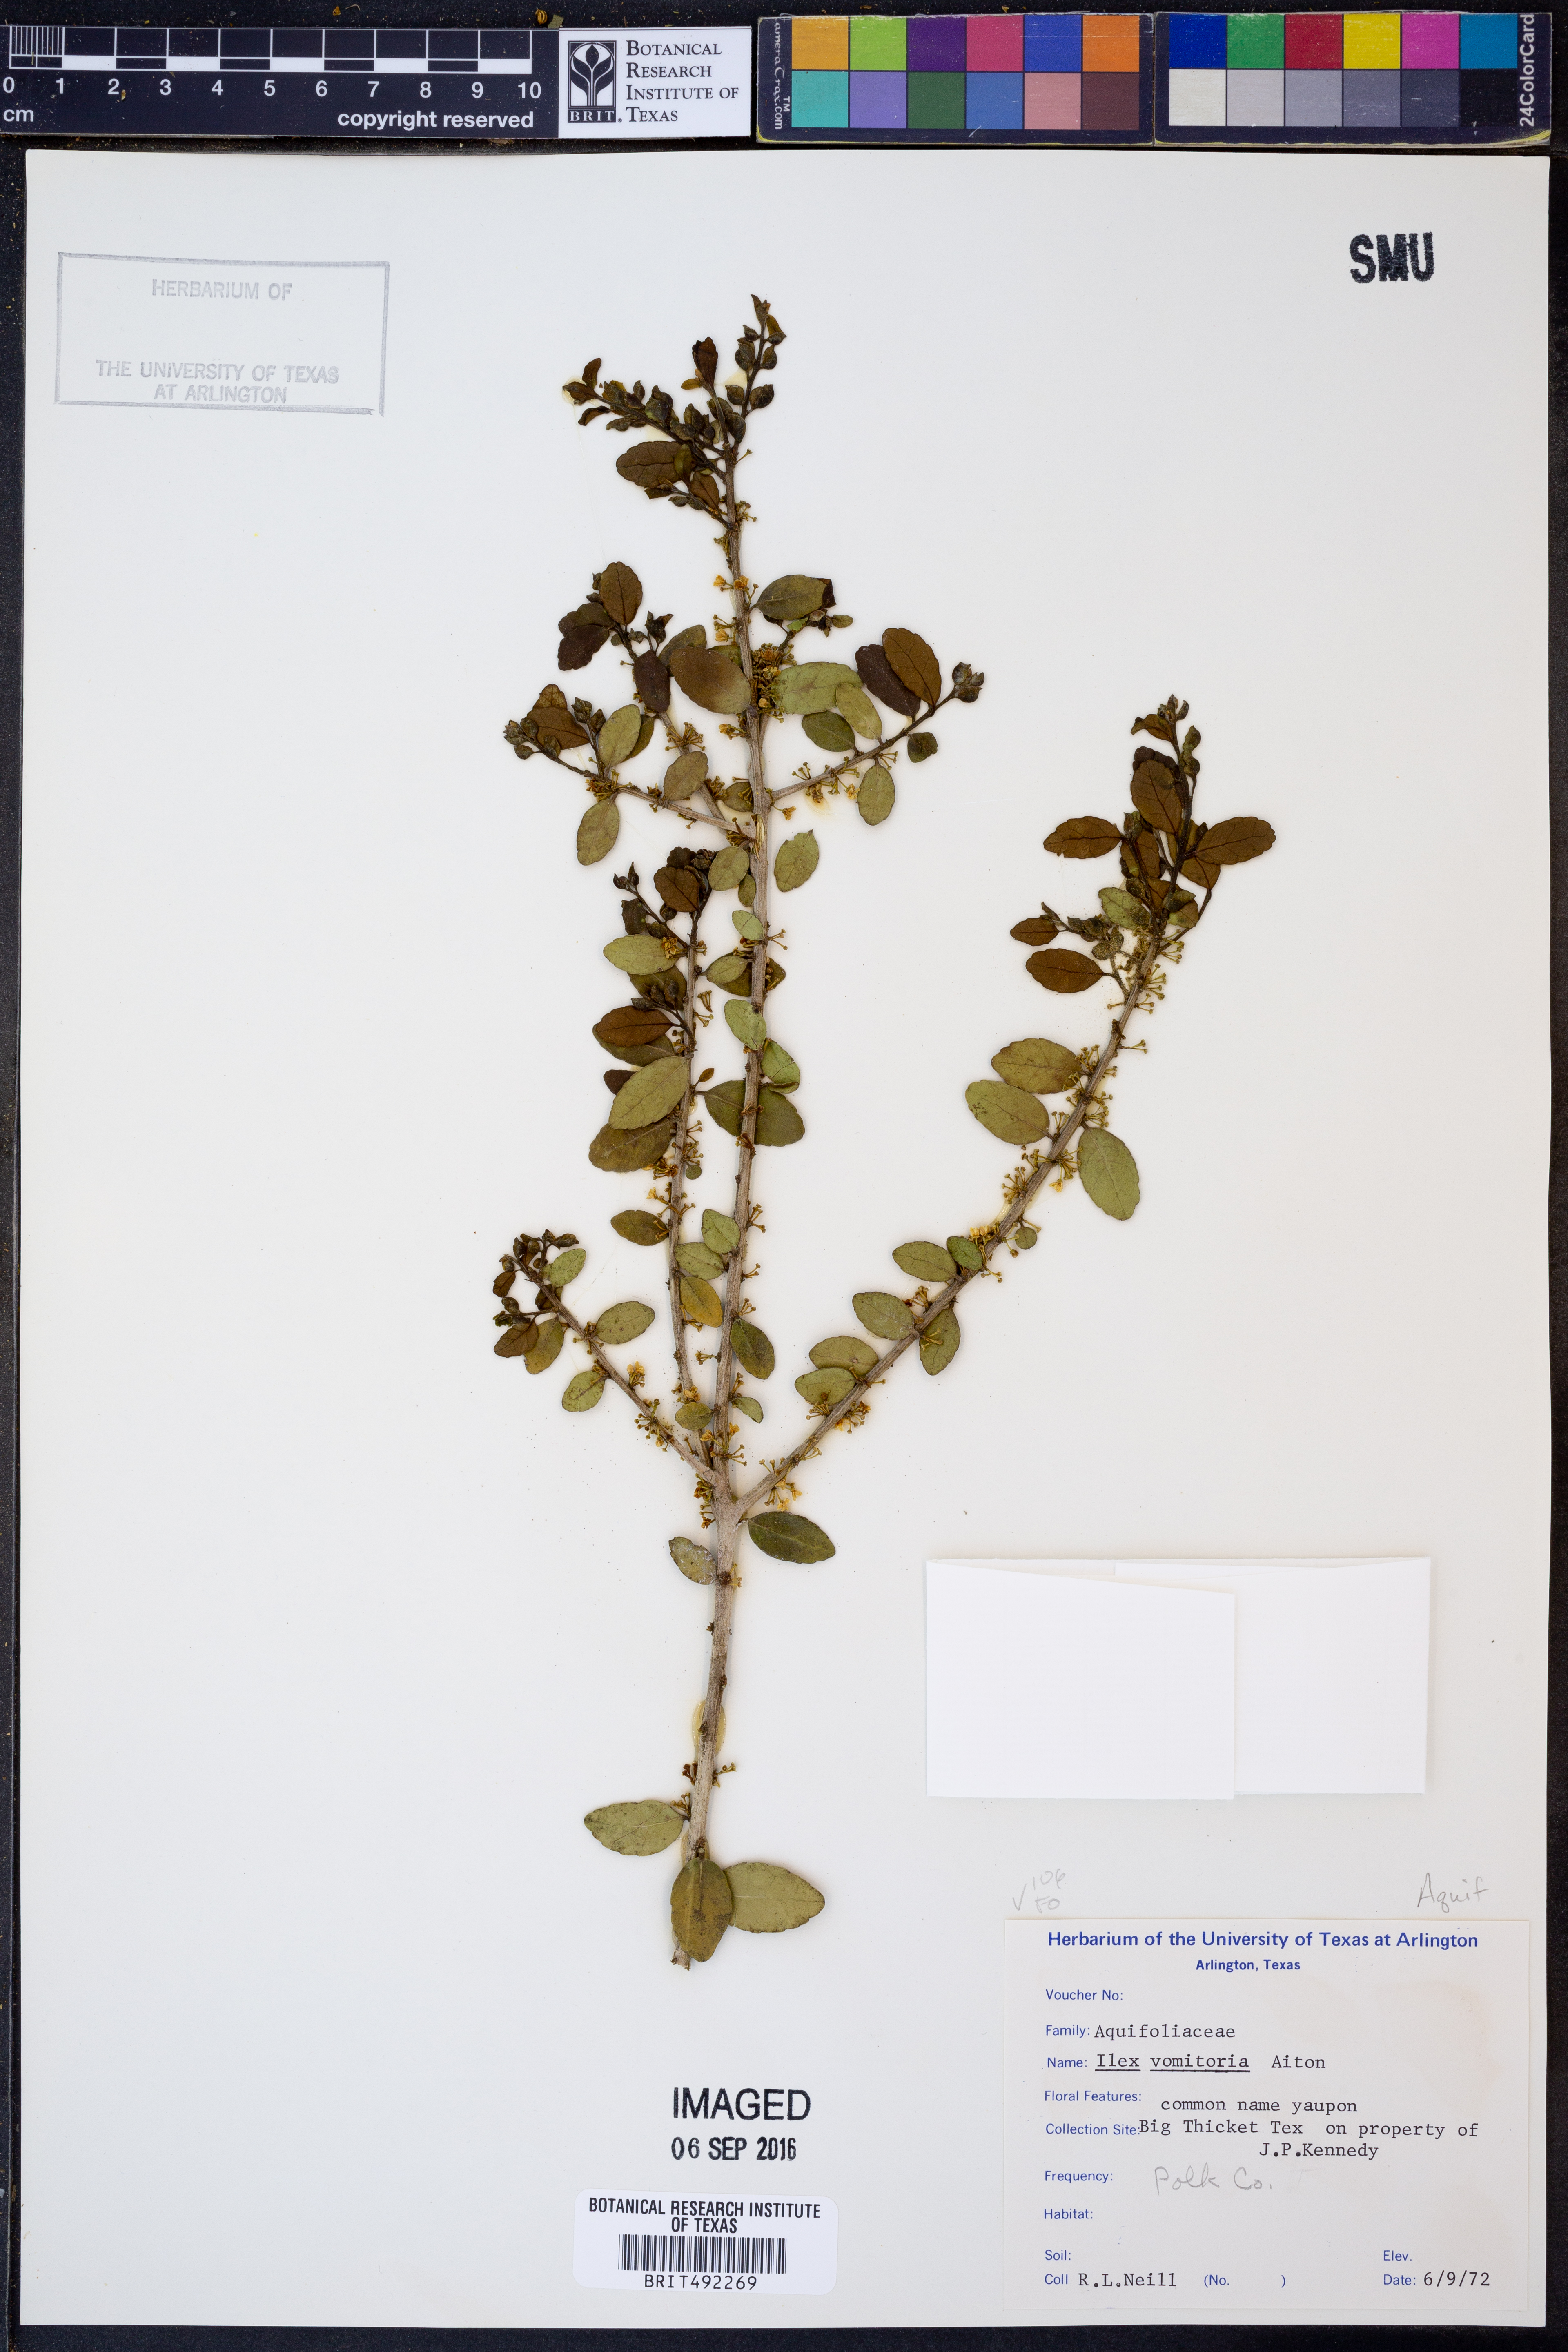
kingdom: Plantae
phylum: Tracheophyta
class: Magnoliopsida
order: Aquifoliales
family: Aquifoliaceae
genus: Ilex
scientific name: Ilex vomitoria
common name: Yaupon holly
